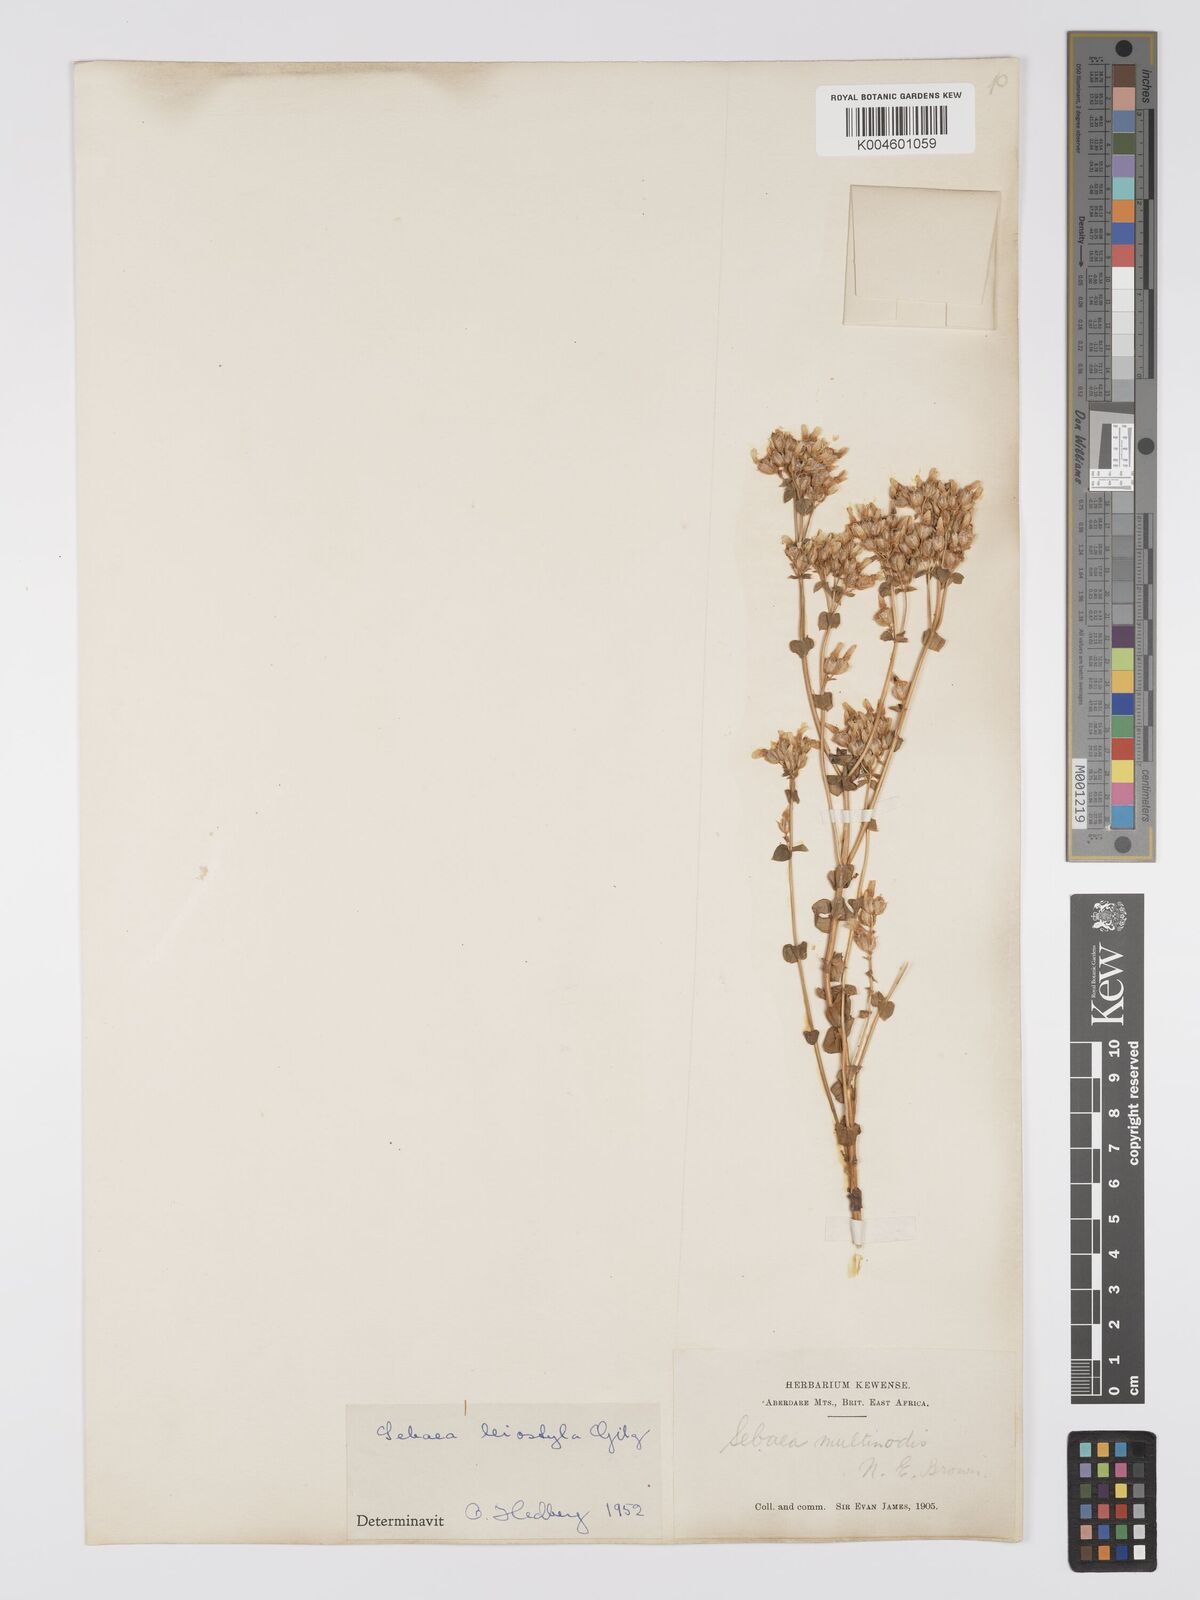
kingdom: Plantae
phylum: Tracheophyta
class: Magnoliopsida
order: Gentianales
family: Gentianaceae
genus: Sebaea
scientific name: Sebaea brachyphylla
